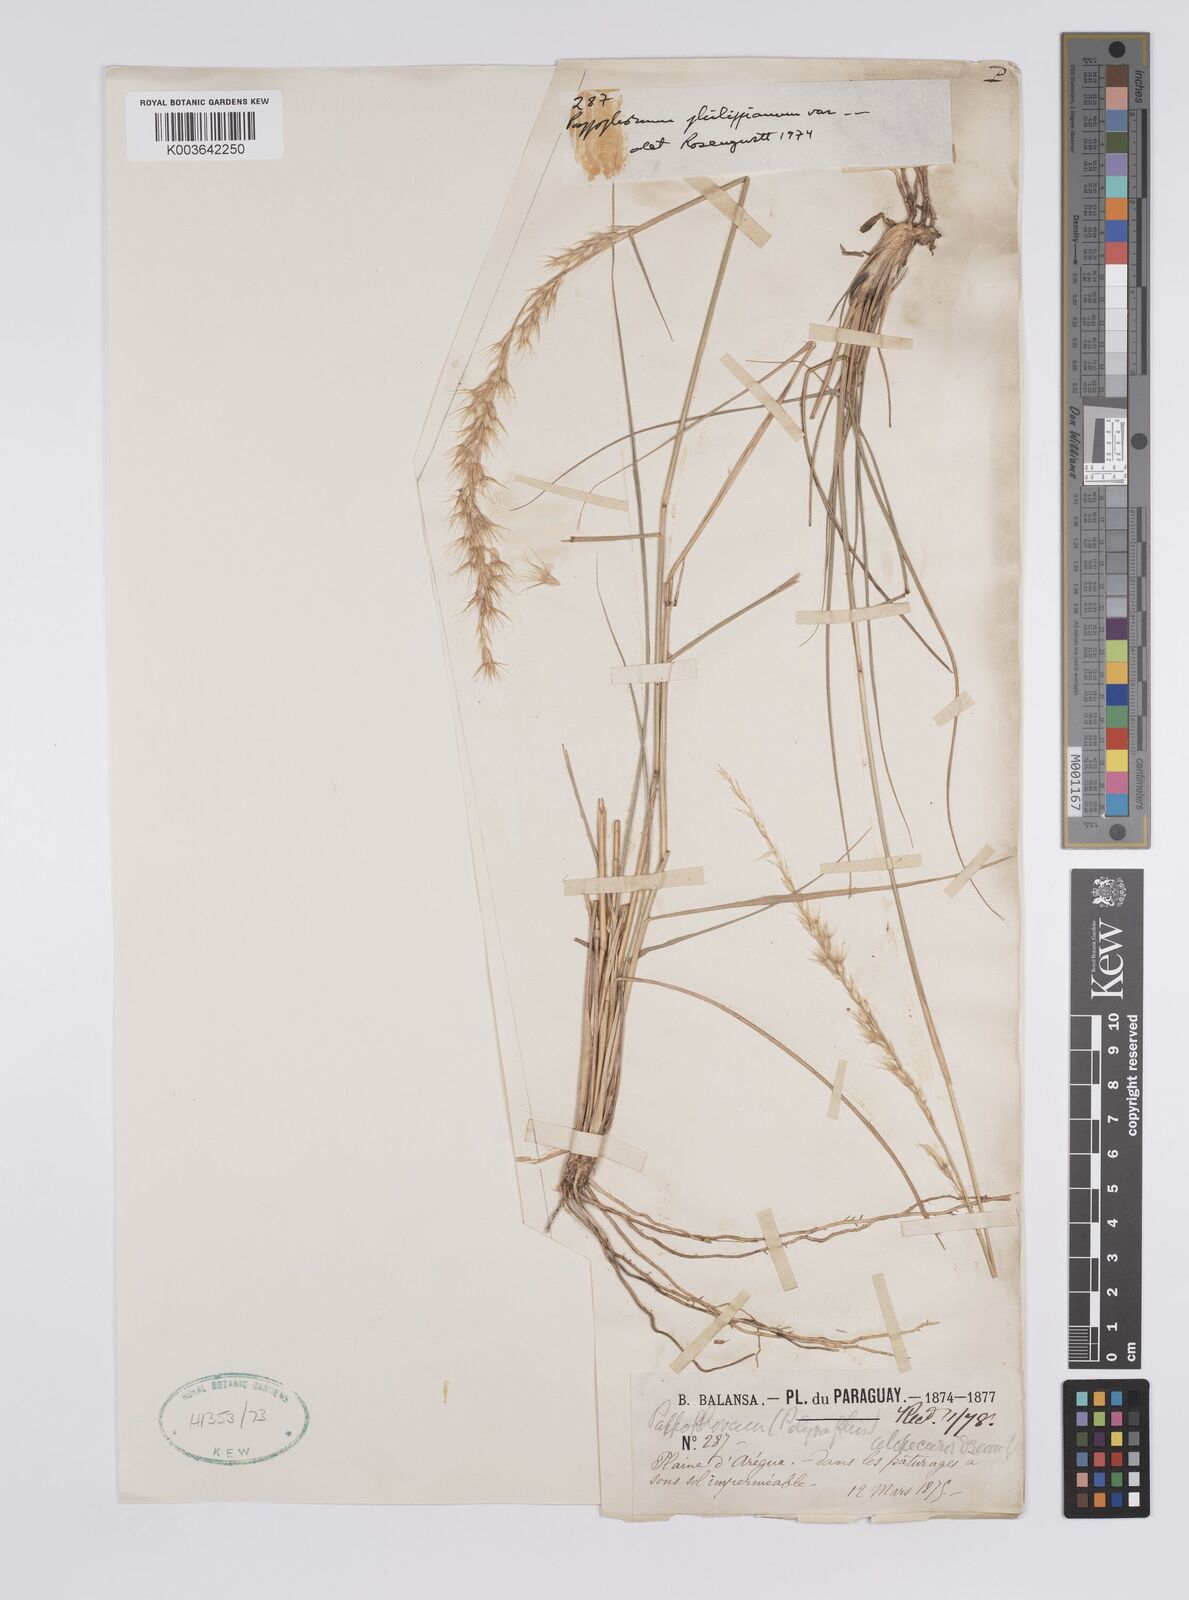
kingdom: Plantae
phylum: Tracheophyta
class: Liliopsida
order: Poales
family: Poaceae
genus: Pappophorum
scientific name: Pappophorum philippianum
